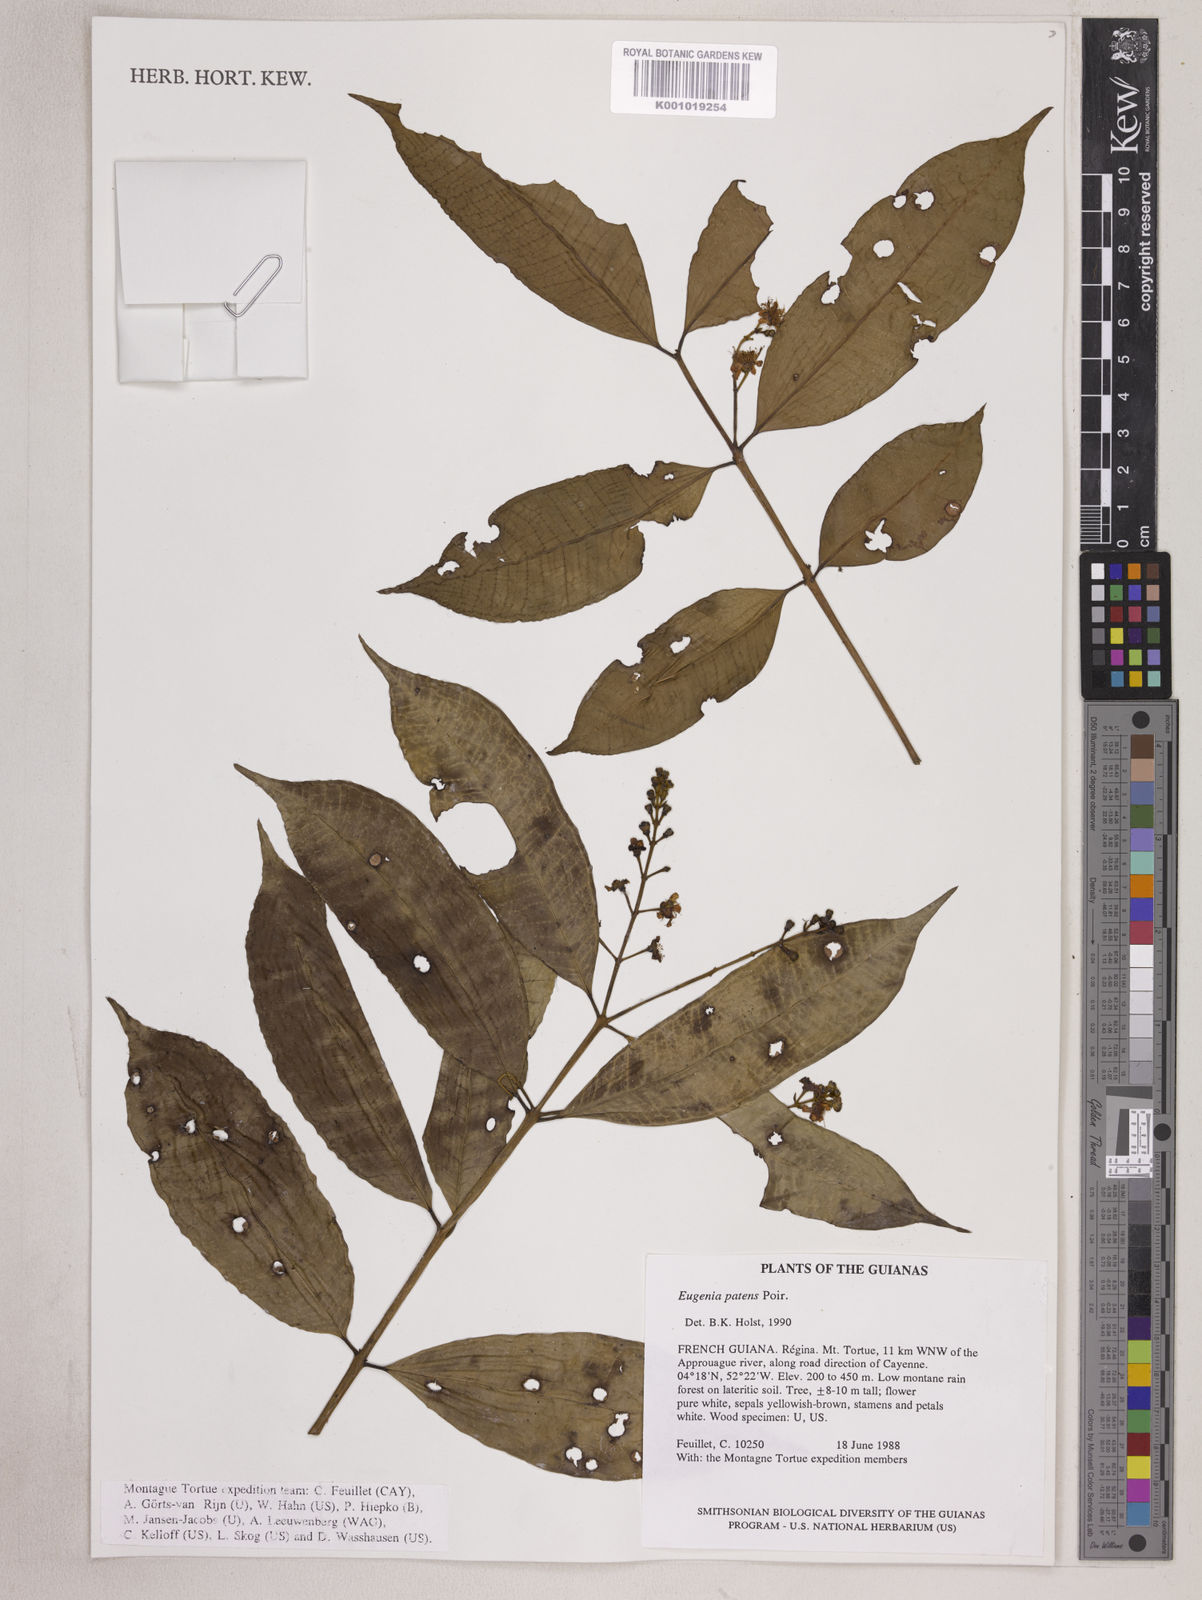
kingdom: Plantae
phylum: Tracheophyta
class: Magnoliopsida
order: Myrtales
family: Myrtaceae
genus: Eugenia
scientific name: Eugenia patens
